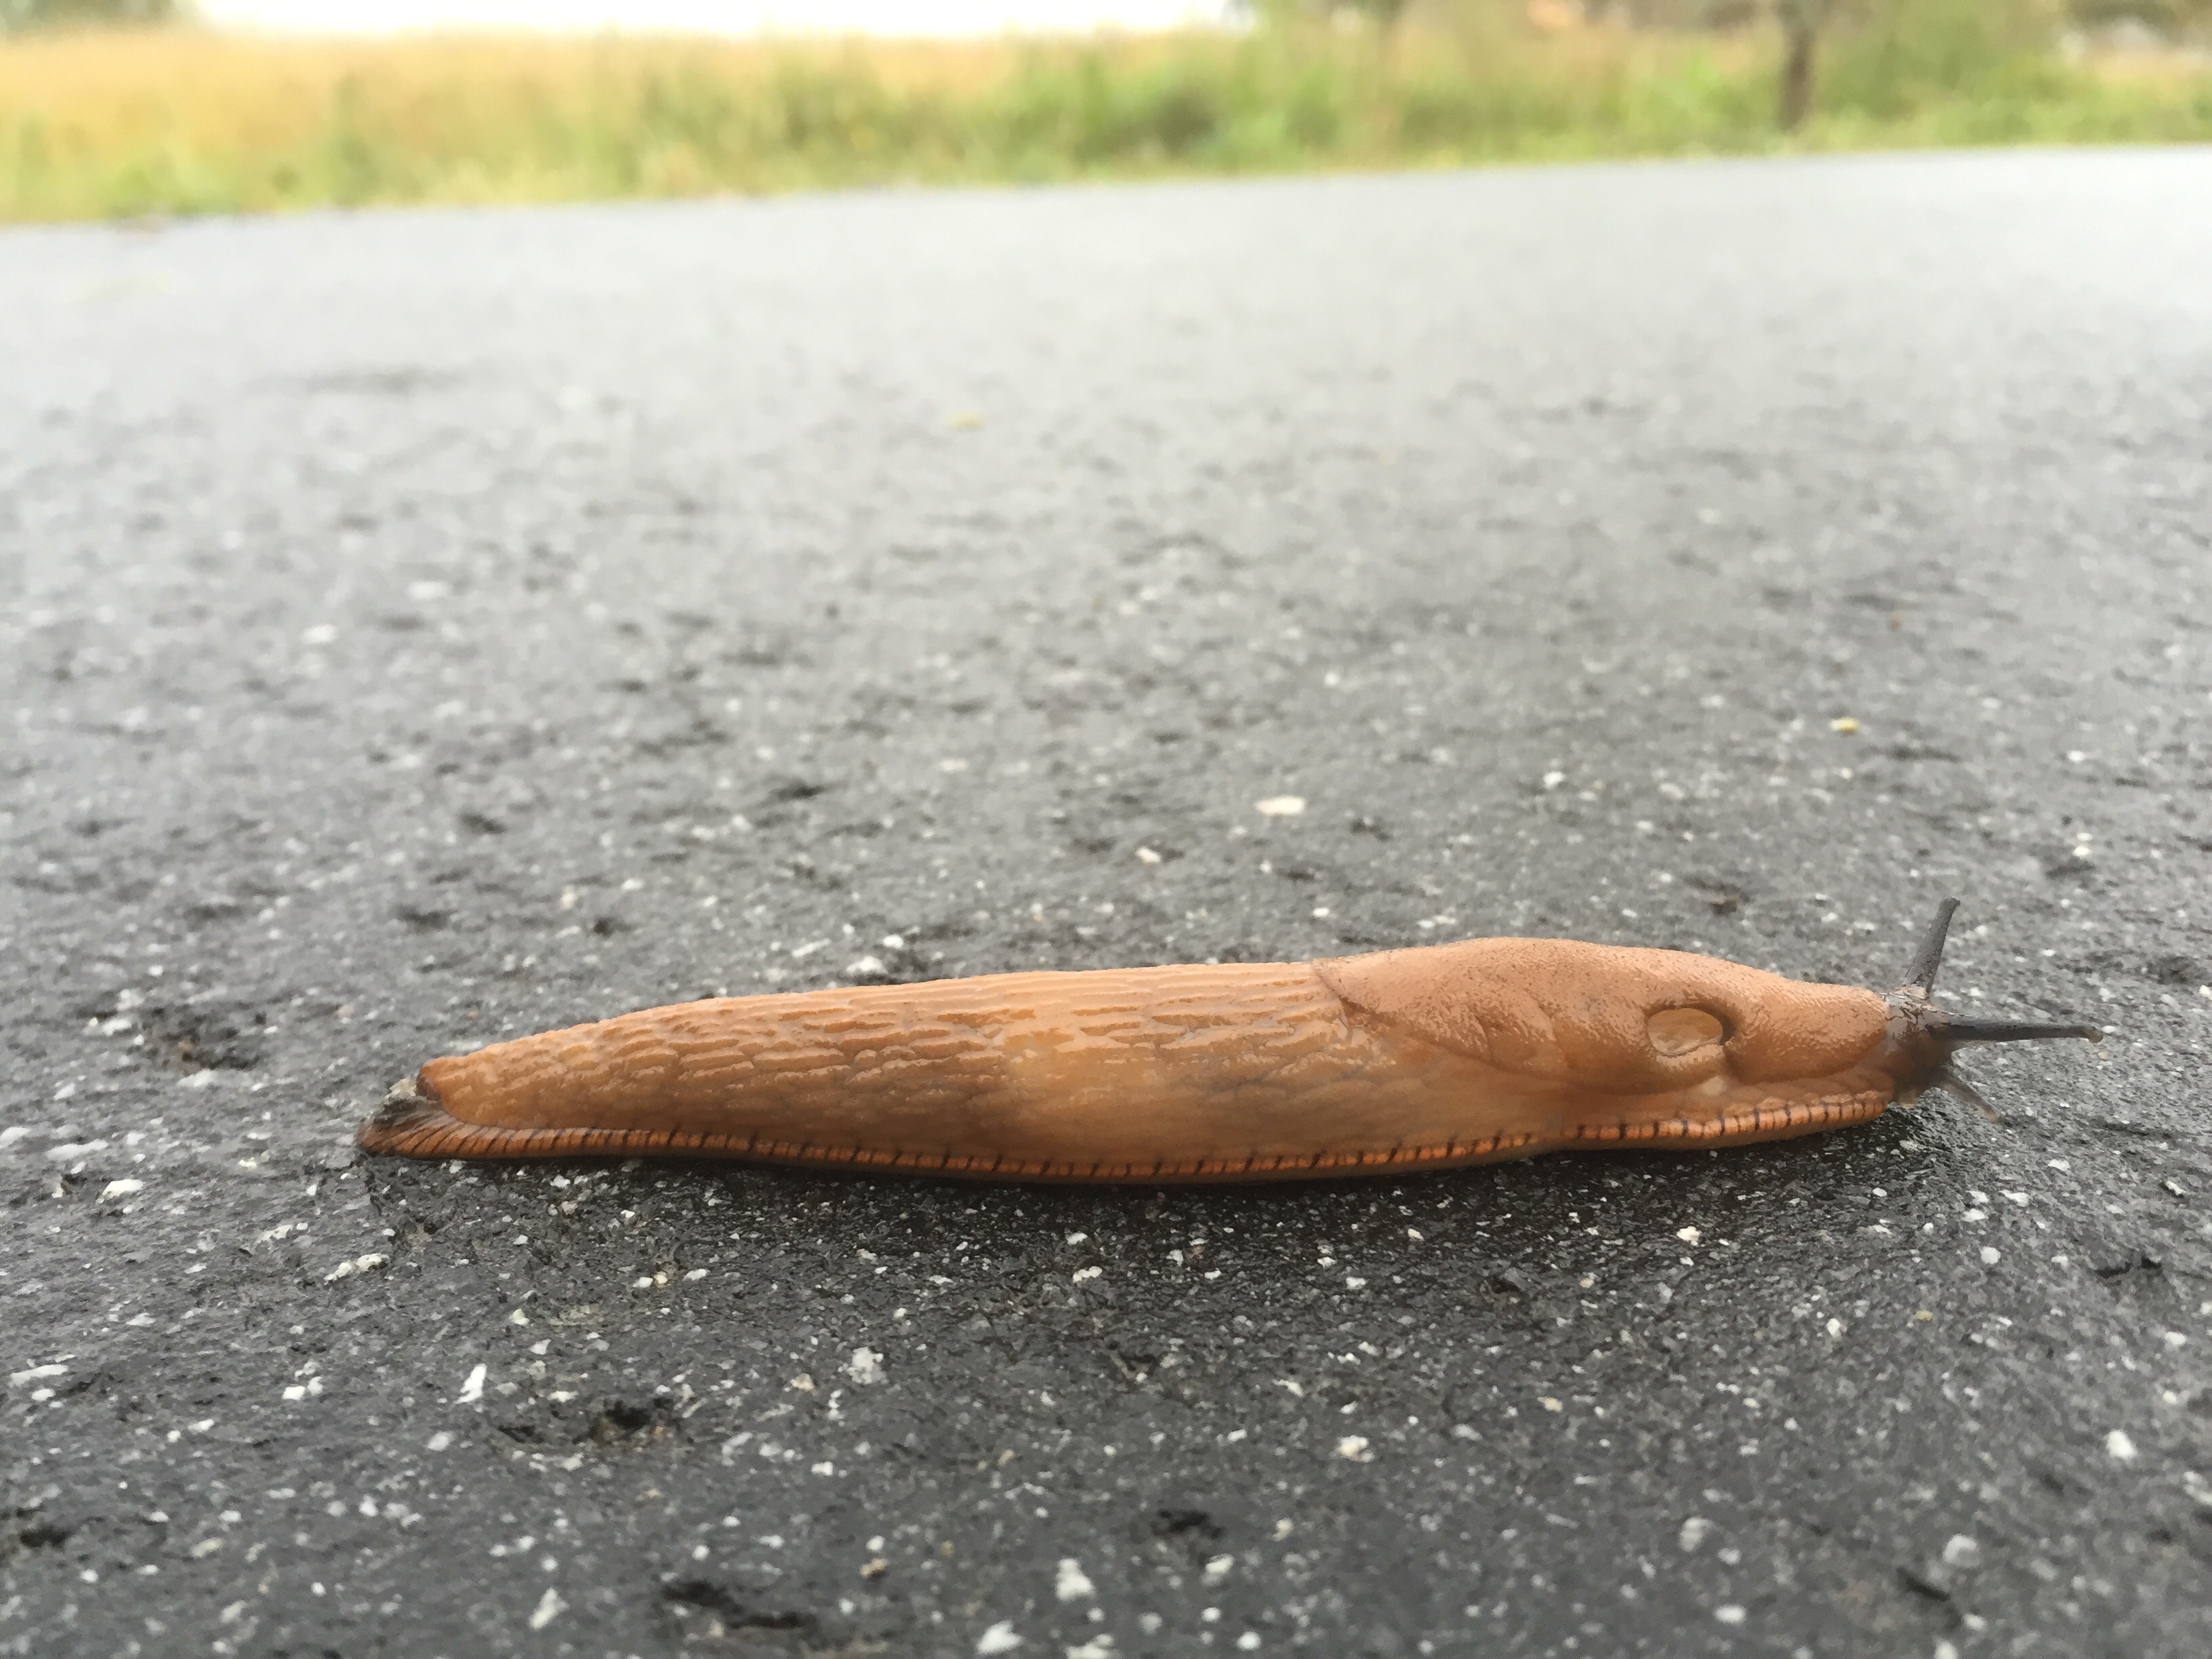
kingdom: Animalia
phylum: Mollusca
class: Gastropoda
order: Stylommatophora
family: Arionidae
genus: Arion
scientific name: Arion vulgaris
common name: Lusitanian slug
